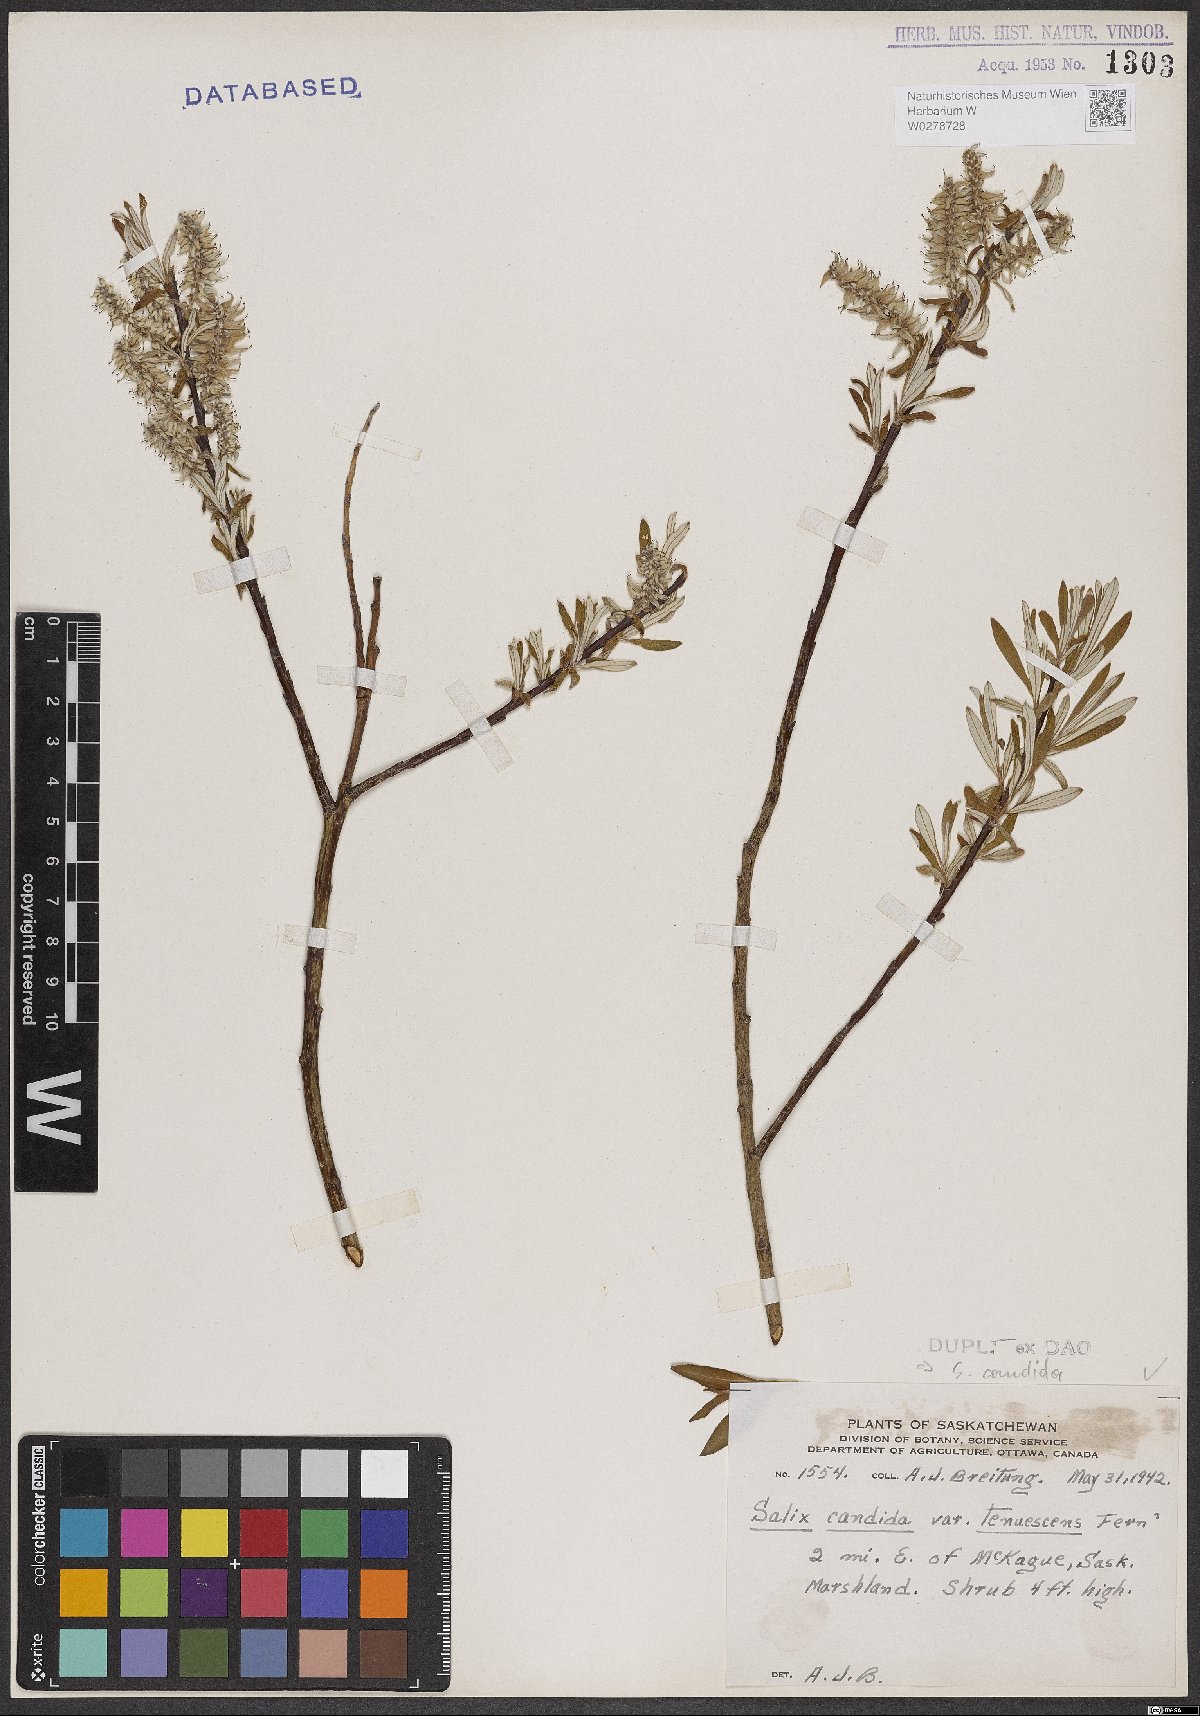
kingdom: Plantae
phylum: Tracheophyta
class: Magnoliopsida
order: Malpighiales
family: Salicaceae
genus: Salix
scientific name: Salix candida
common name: Hoary willow
